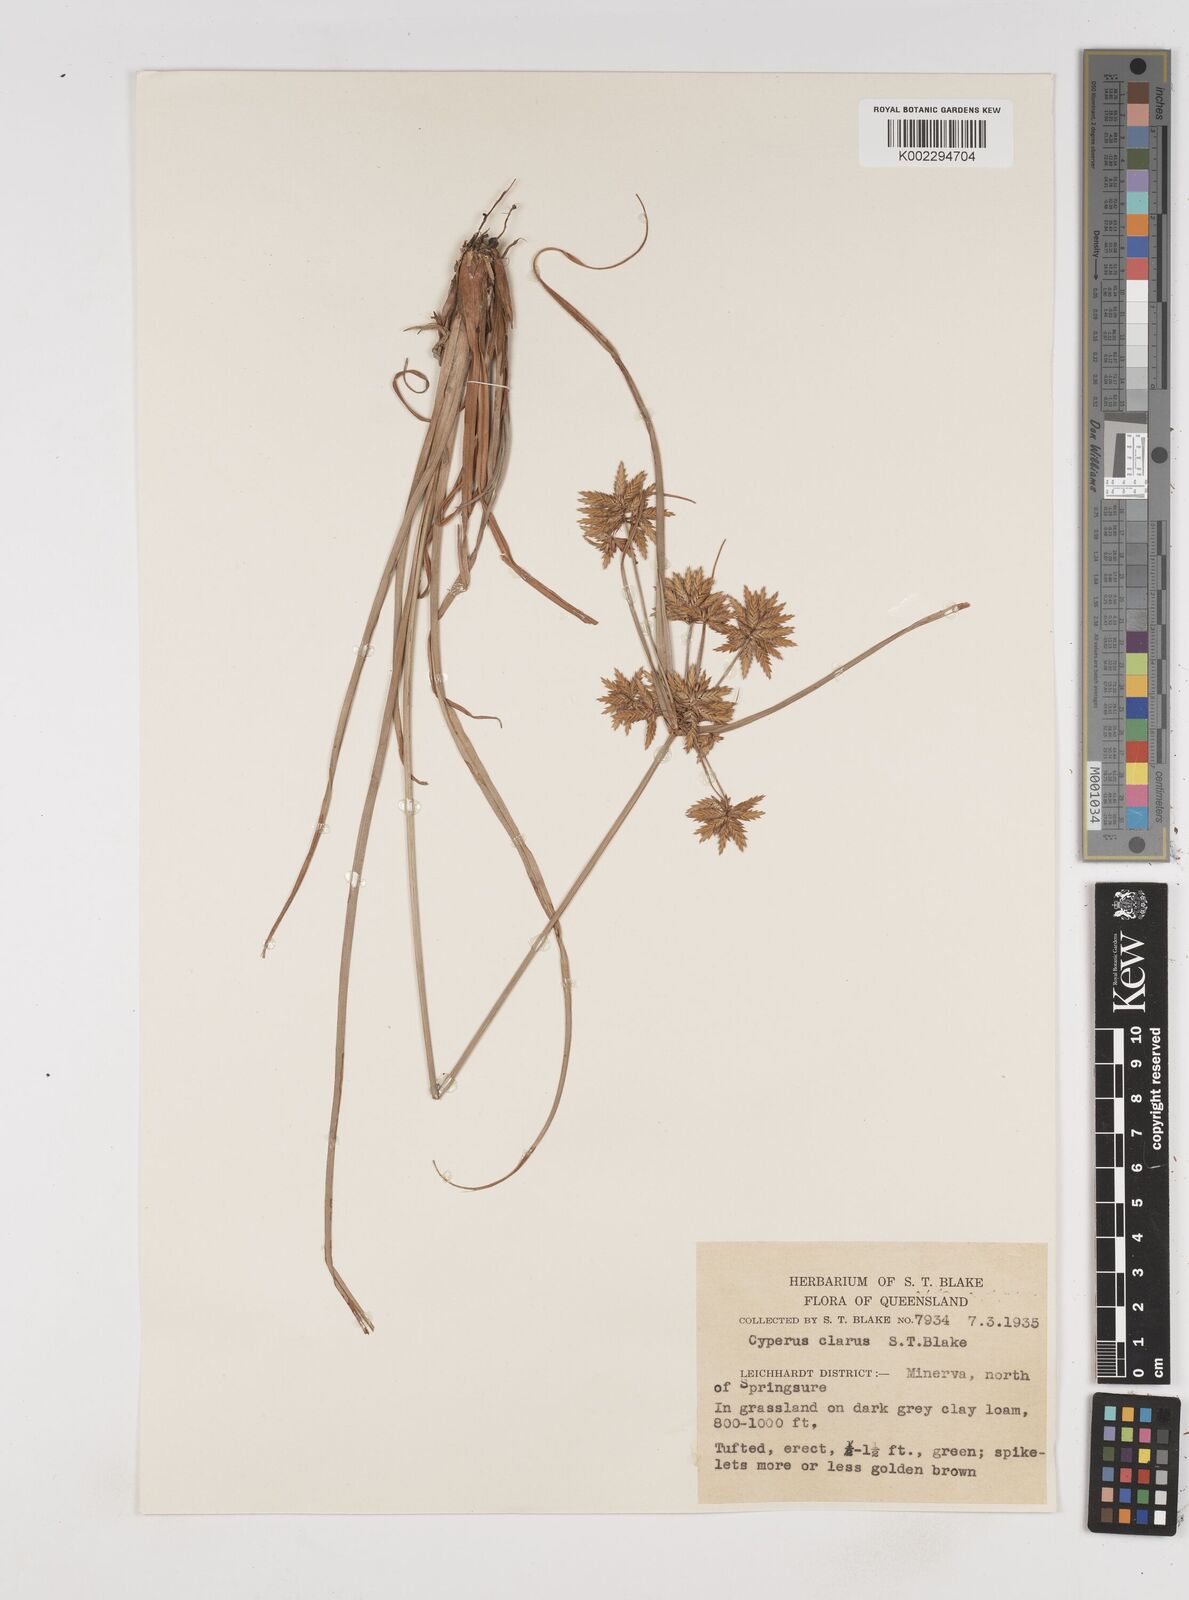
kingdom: Plantae
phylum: Tracheophyta
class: Liliopsida
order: Poales
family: Cyperaceae
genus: Cyperus
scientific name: Cyperus clarus
